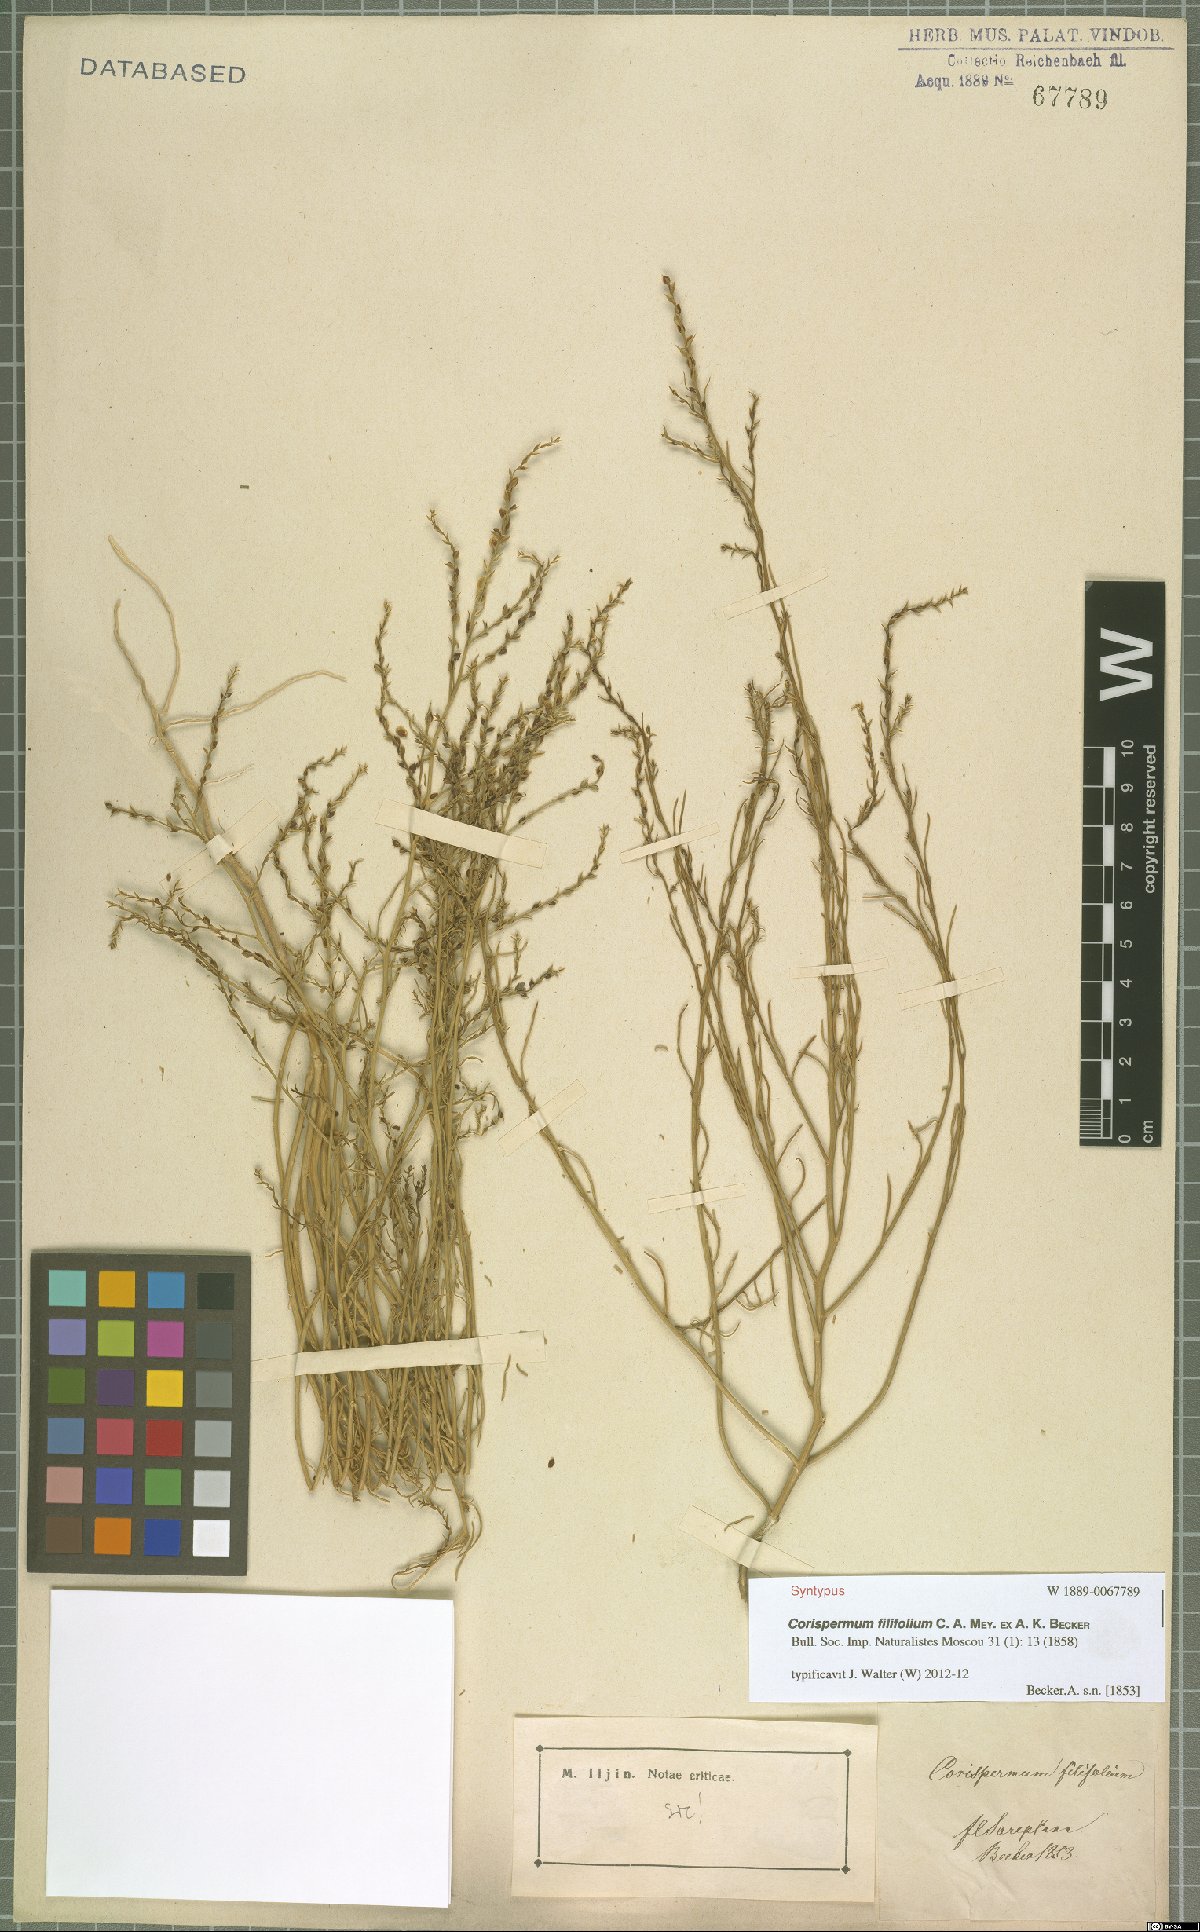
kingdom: Plantae
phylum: Tracheophyta
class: Magnoliopsida
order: Caryophyllales
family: Amaranthaceae
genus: Corispermum
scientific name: Corispermum filifolium
